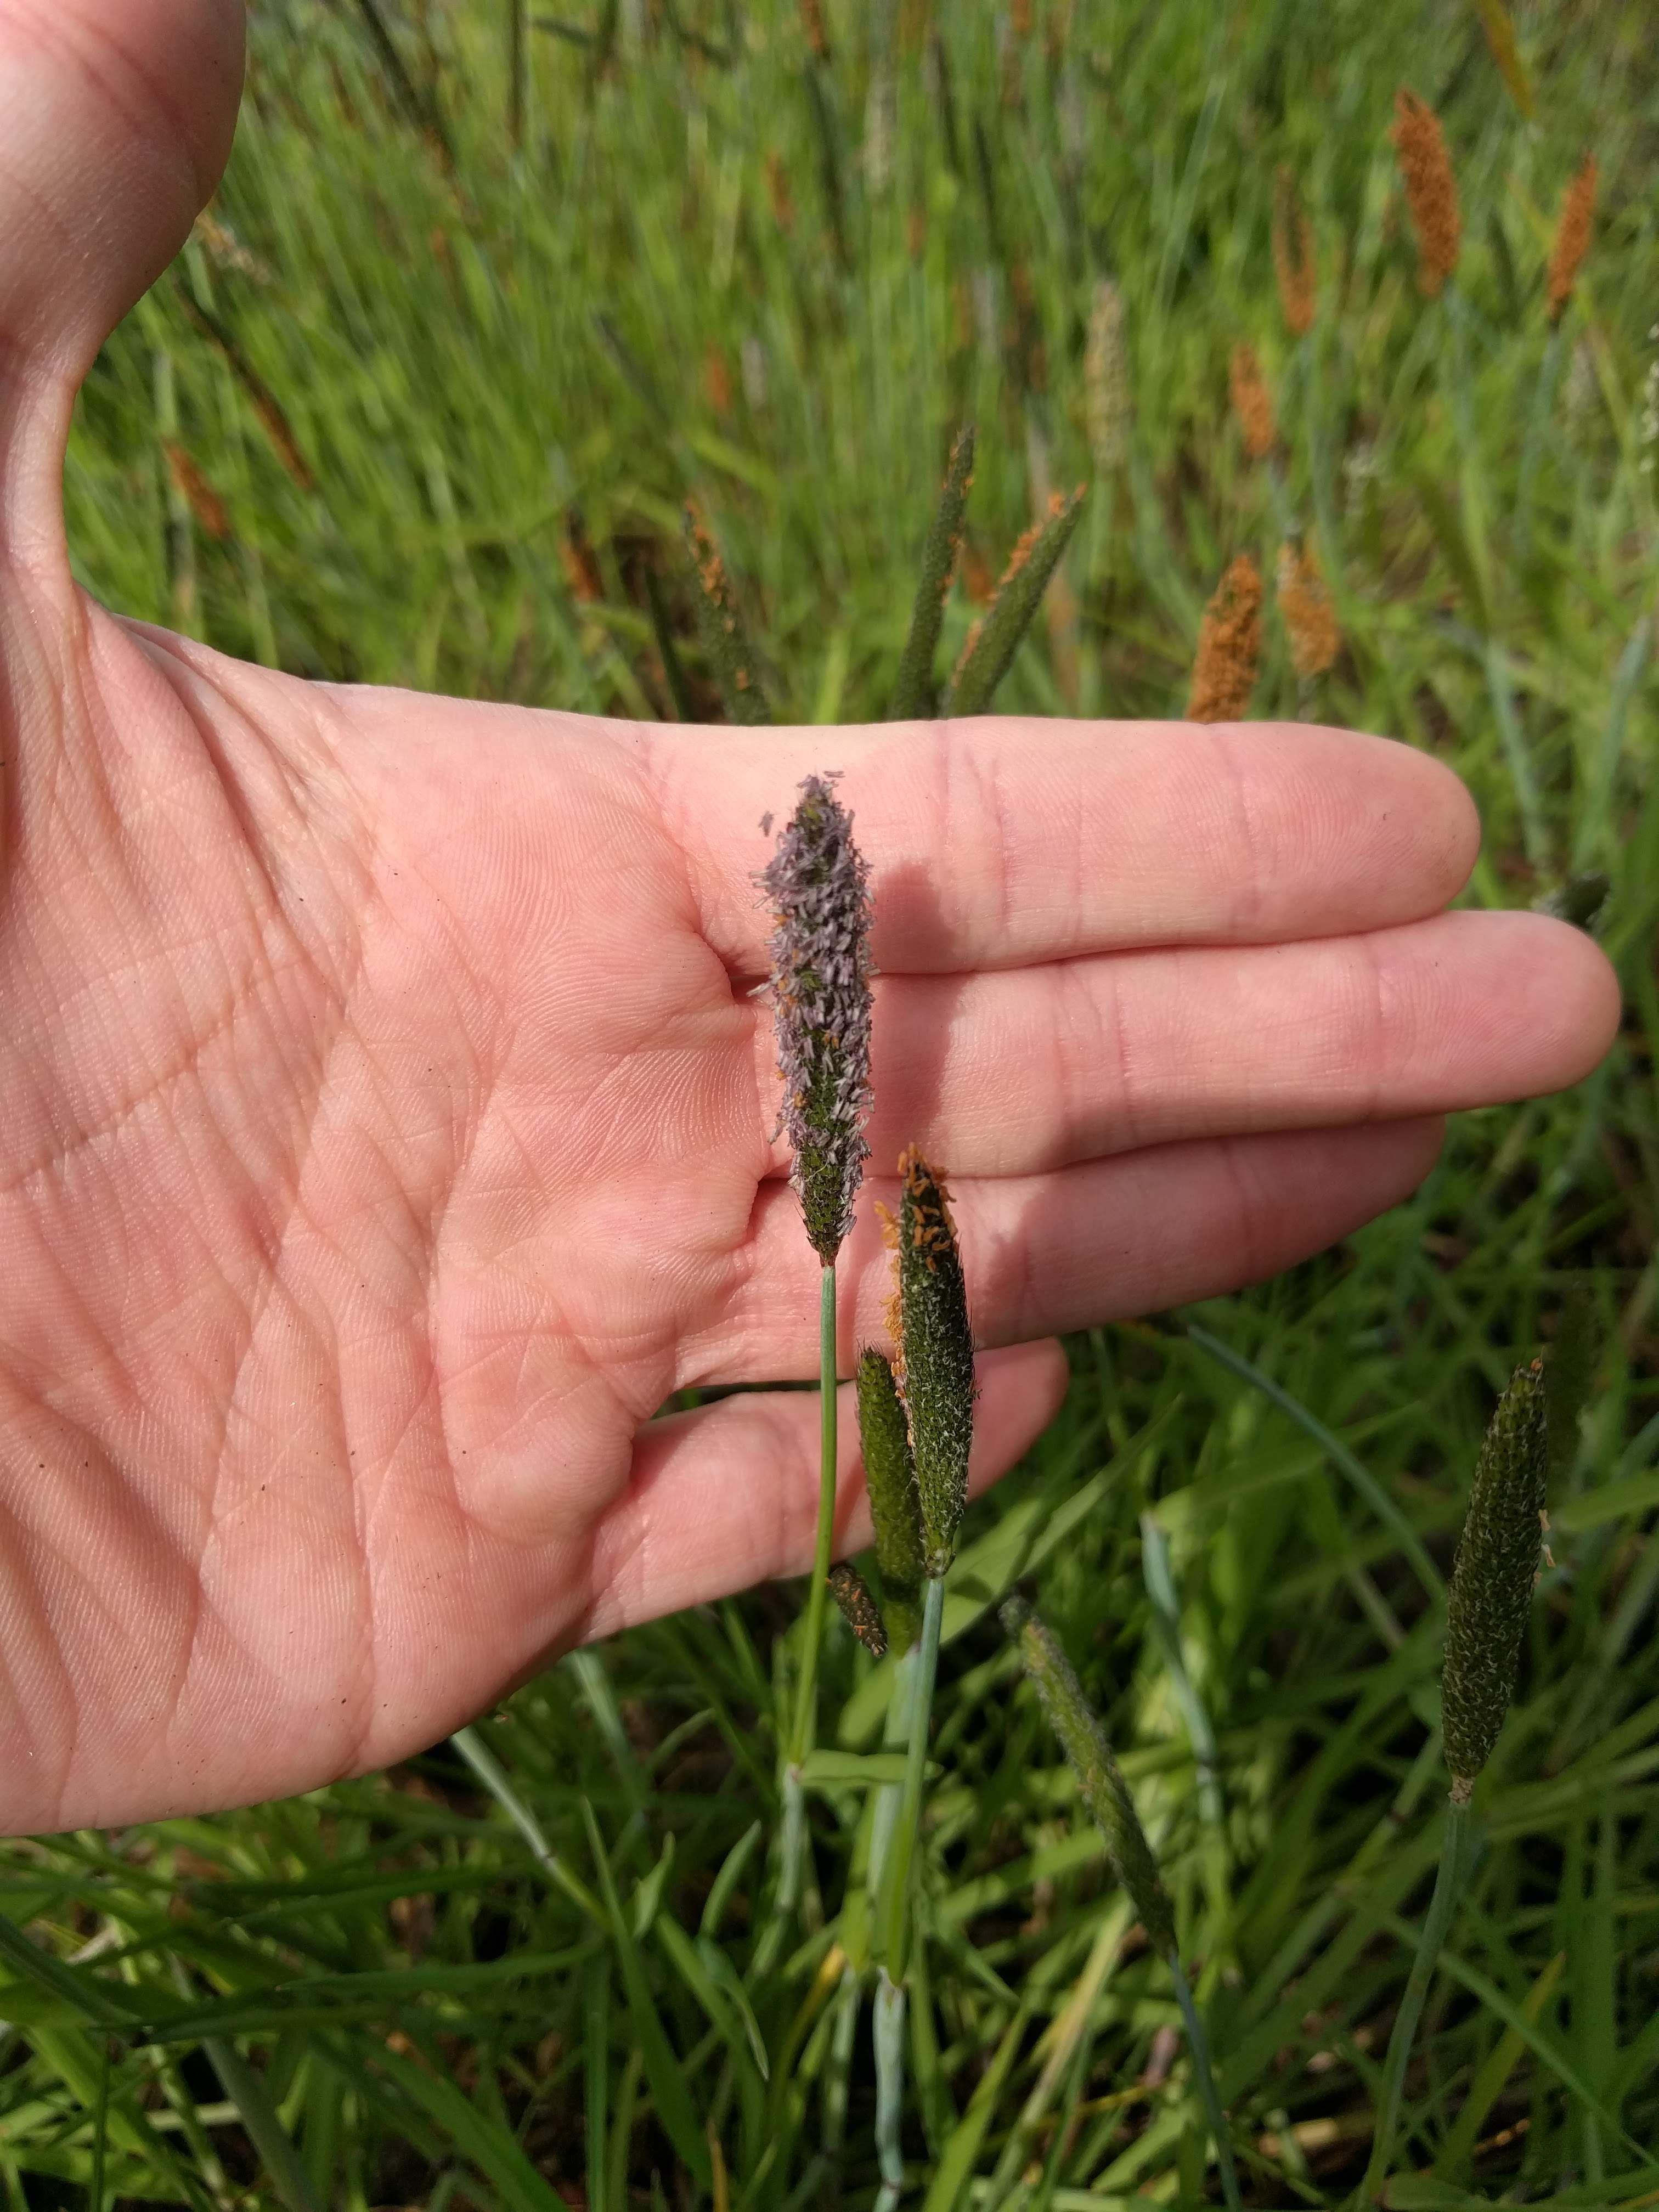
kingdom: Plantae
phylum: Tracheophyta
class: Liliopsida
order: Poales
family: Poaceae
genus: Alopecurus
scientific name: Alopecurus carolinianus
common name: Tufted foxtail
